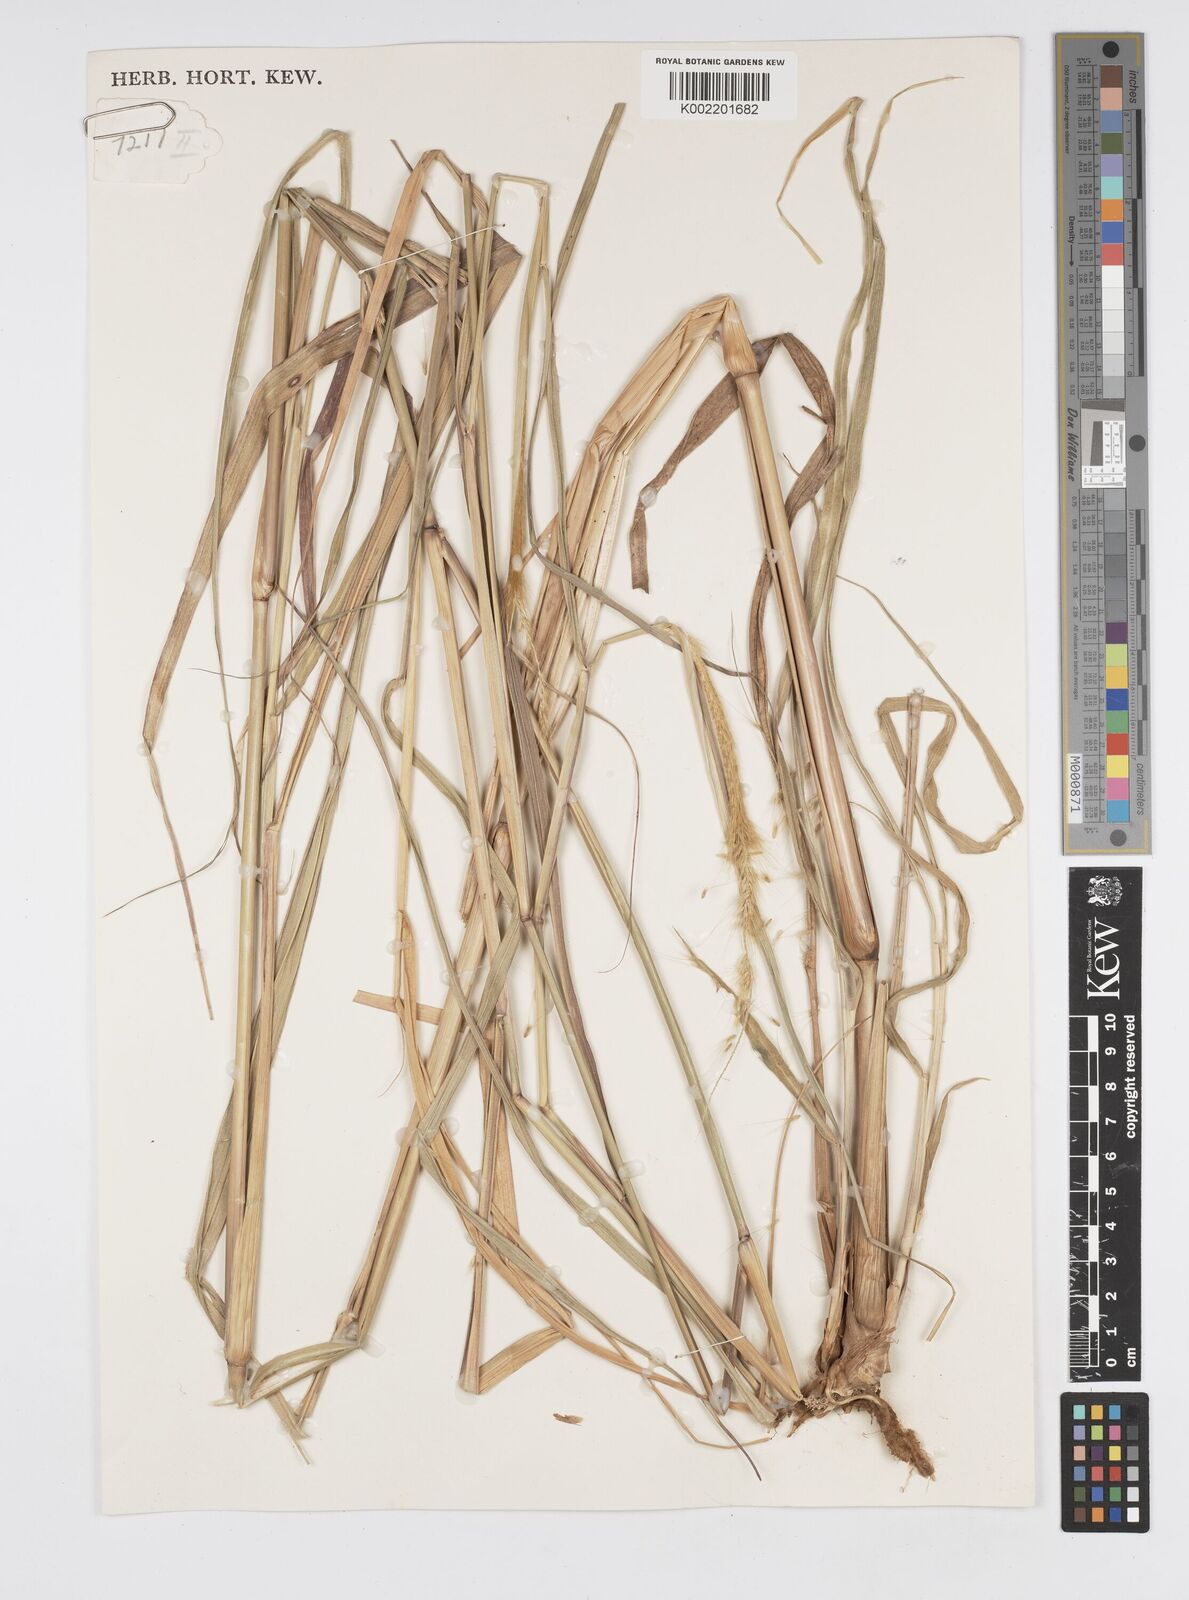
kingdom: Plantae
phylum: Tracheophyta
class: Liliopsida
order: Poales
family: Poaceae
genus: Setaria
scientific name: Setaria parviflora
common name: Knotroot bristle-grass
